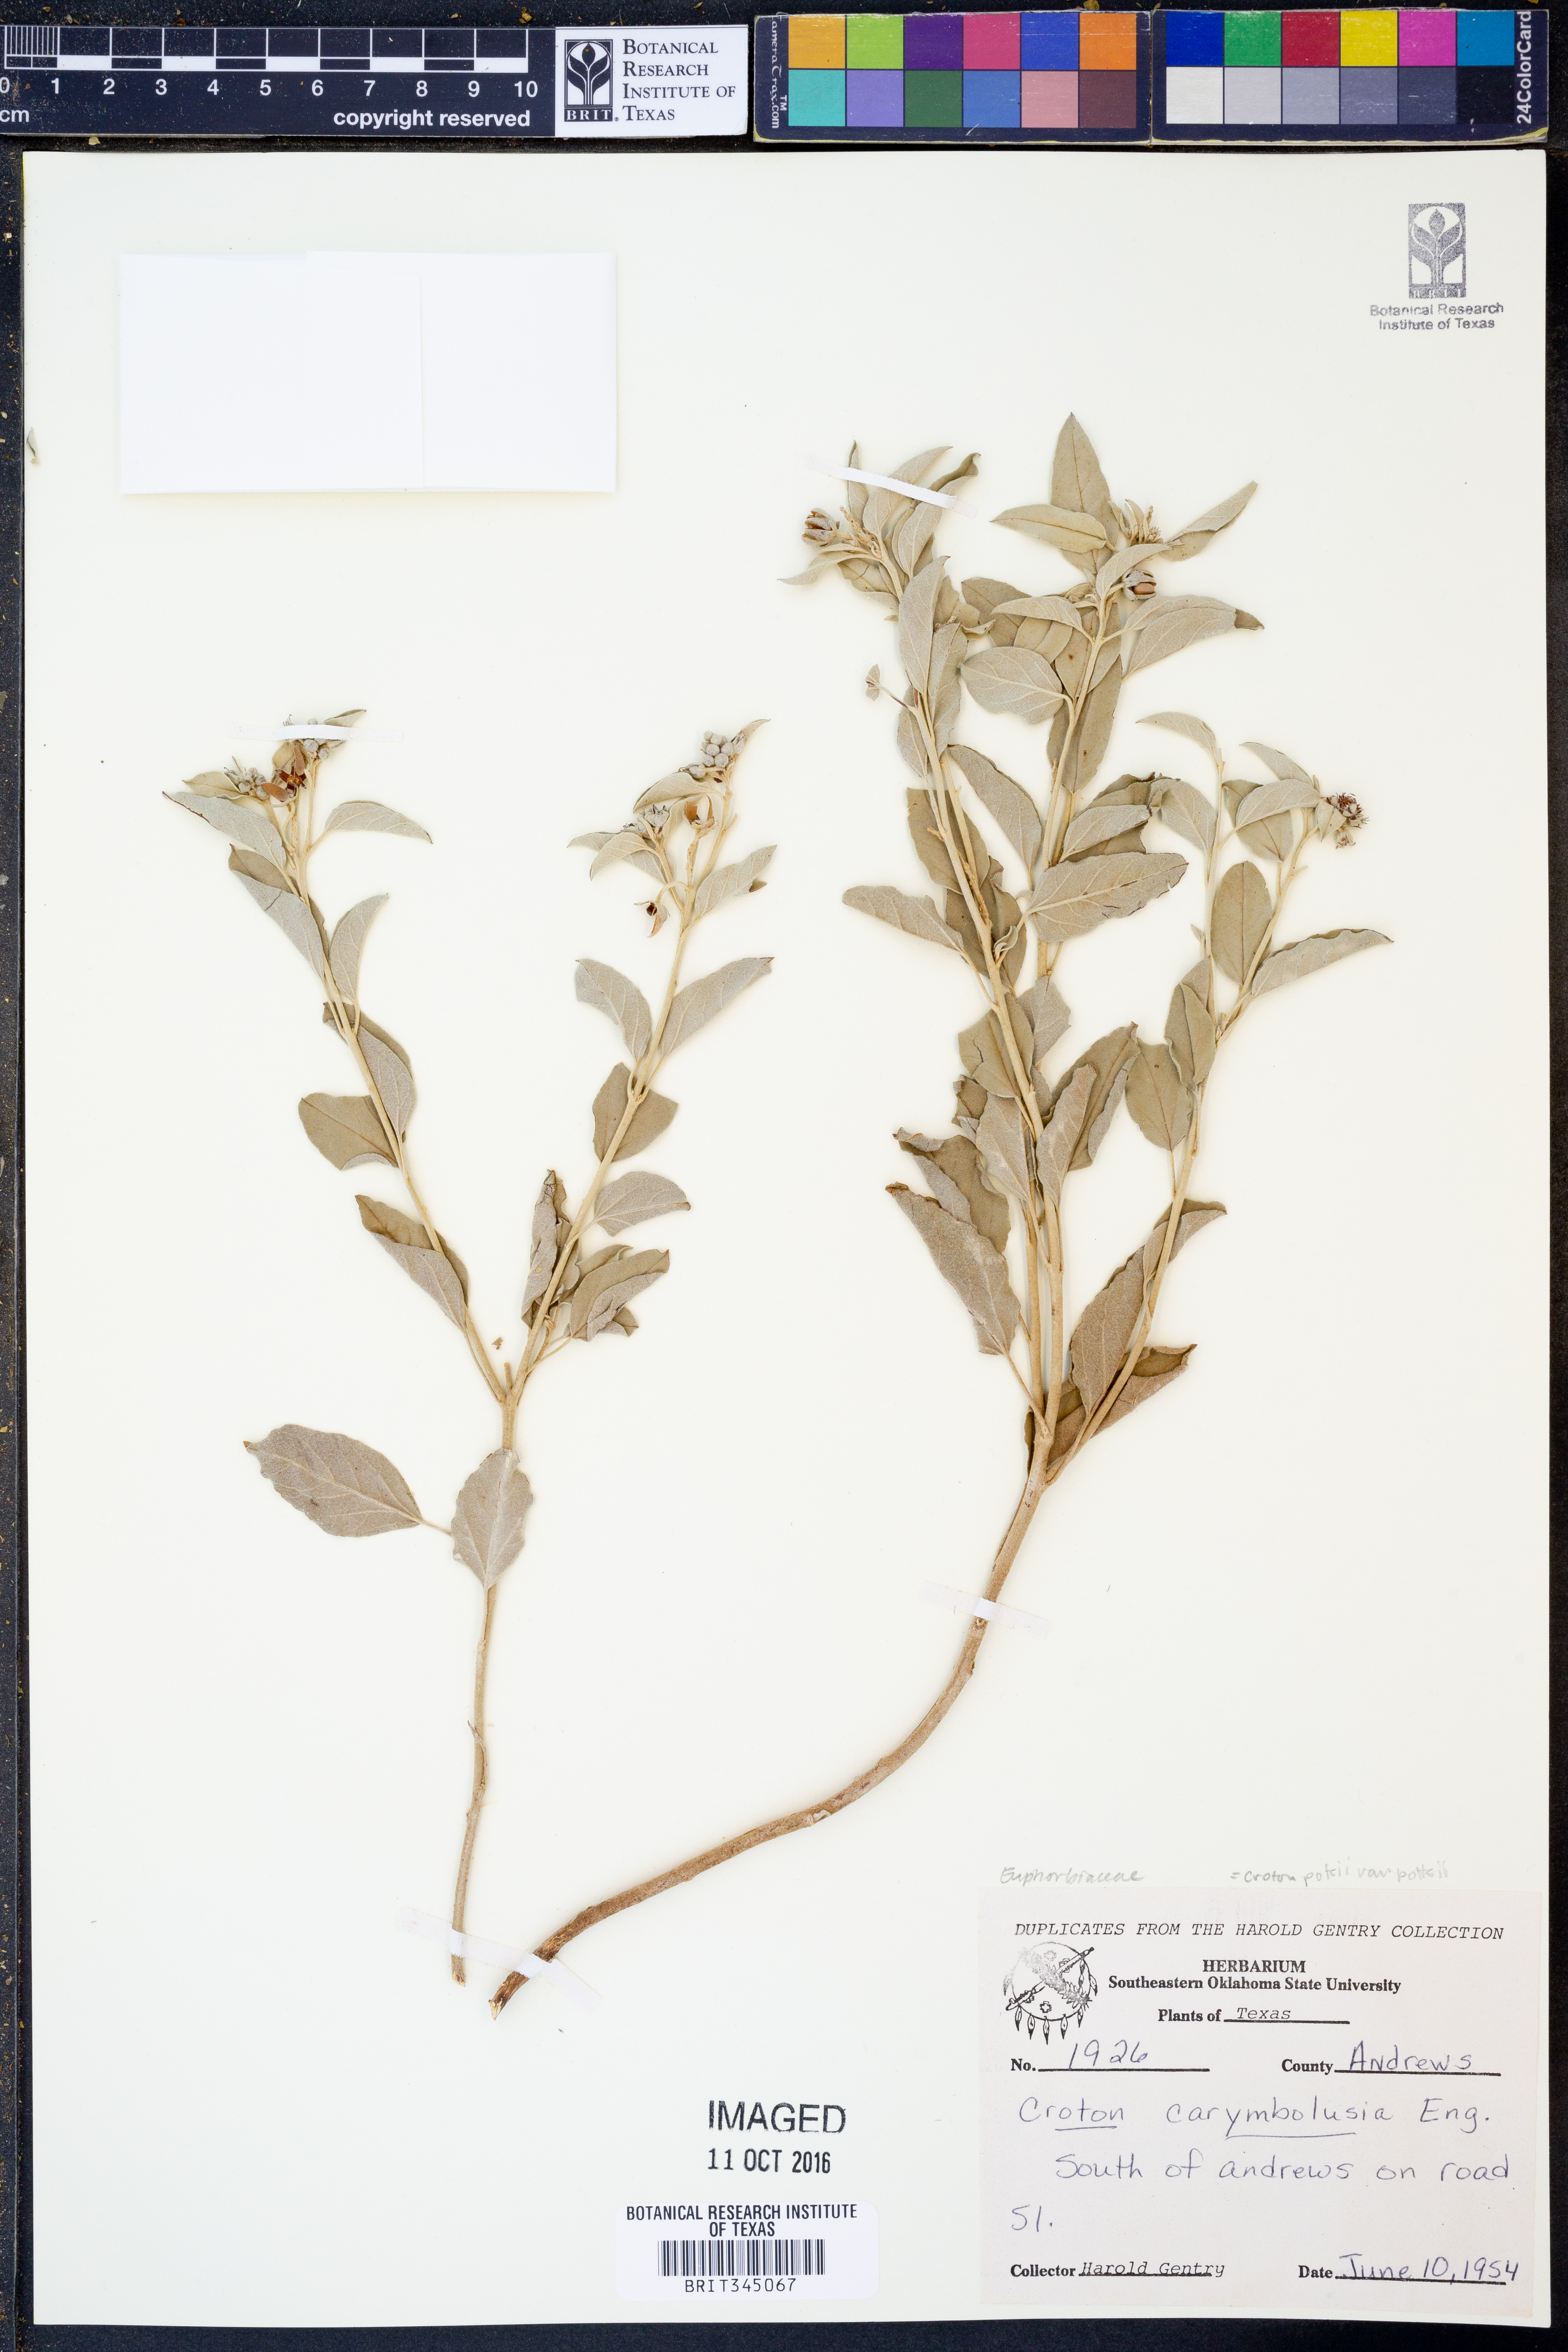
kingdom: Plantae
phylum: Tracheophyta
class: Magnoliopsida
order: Malpighiales
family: Euphorbiaceae
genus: Croton
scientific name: Croton pottsii
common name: Leatherweed
